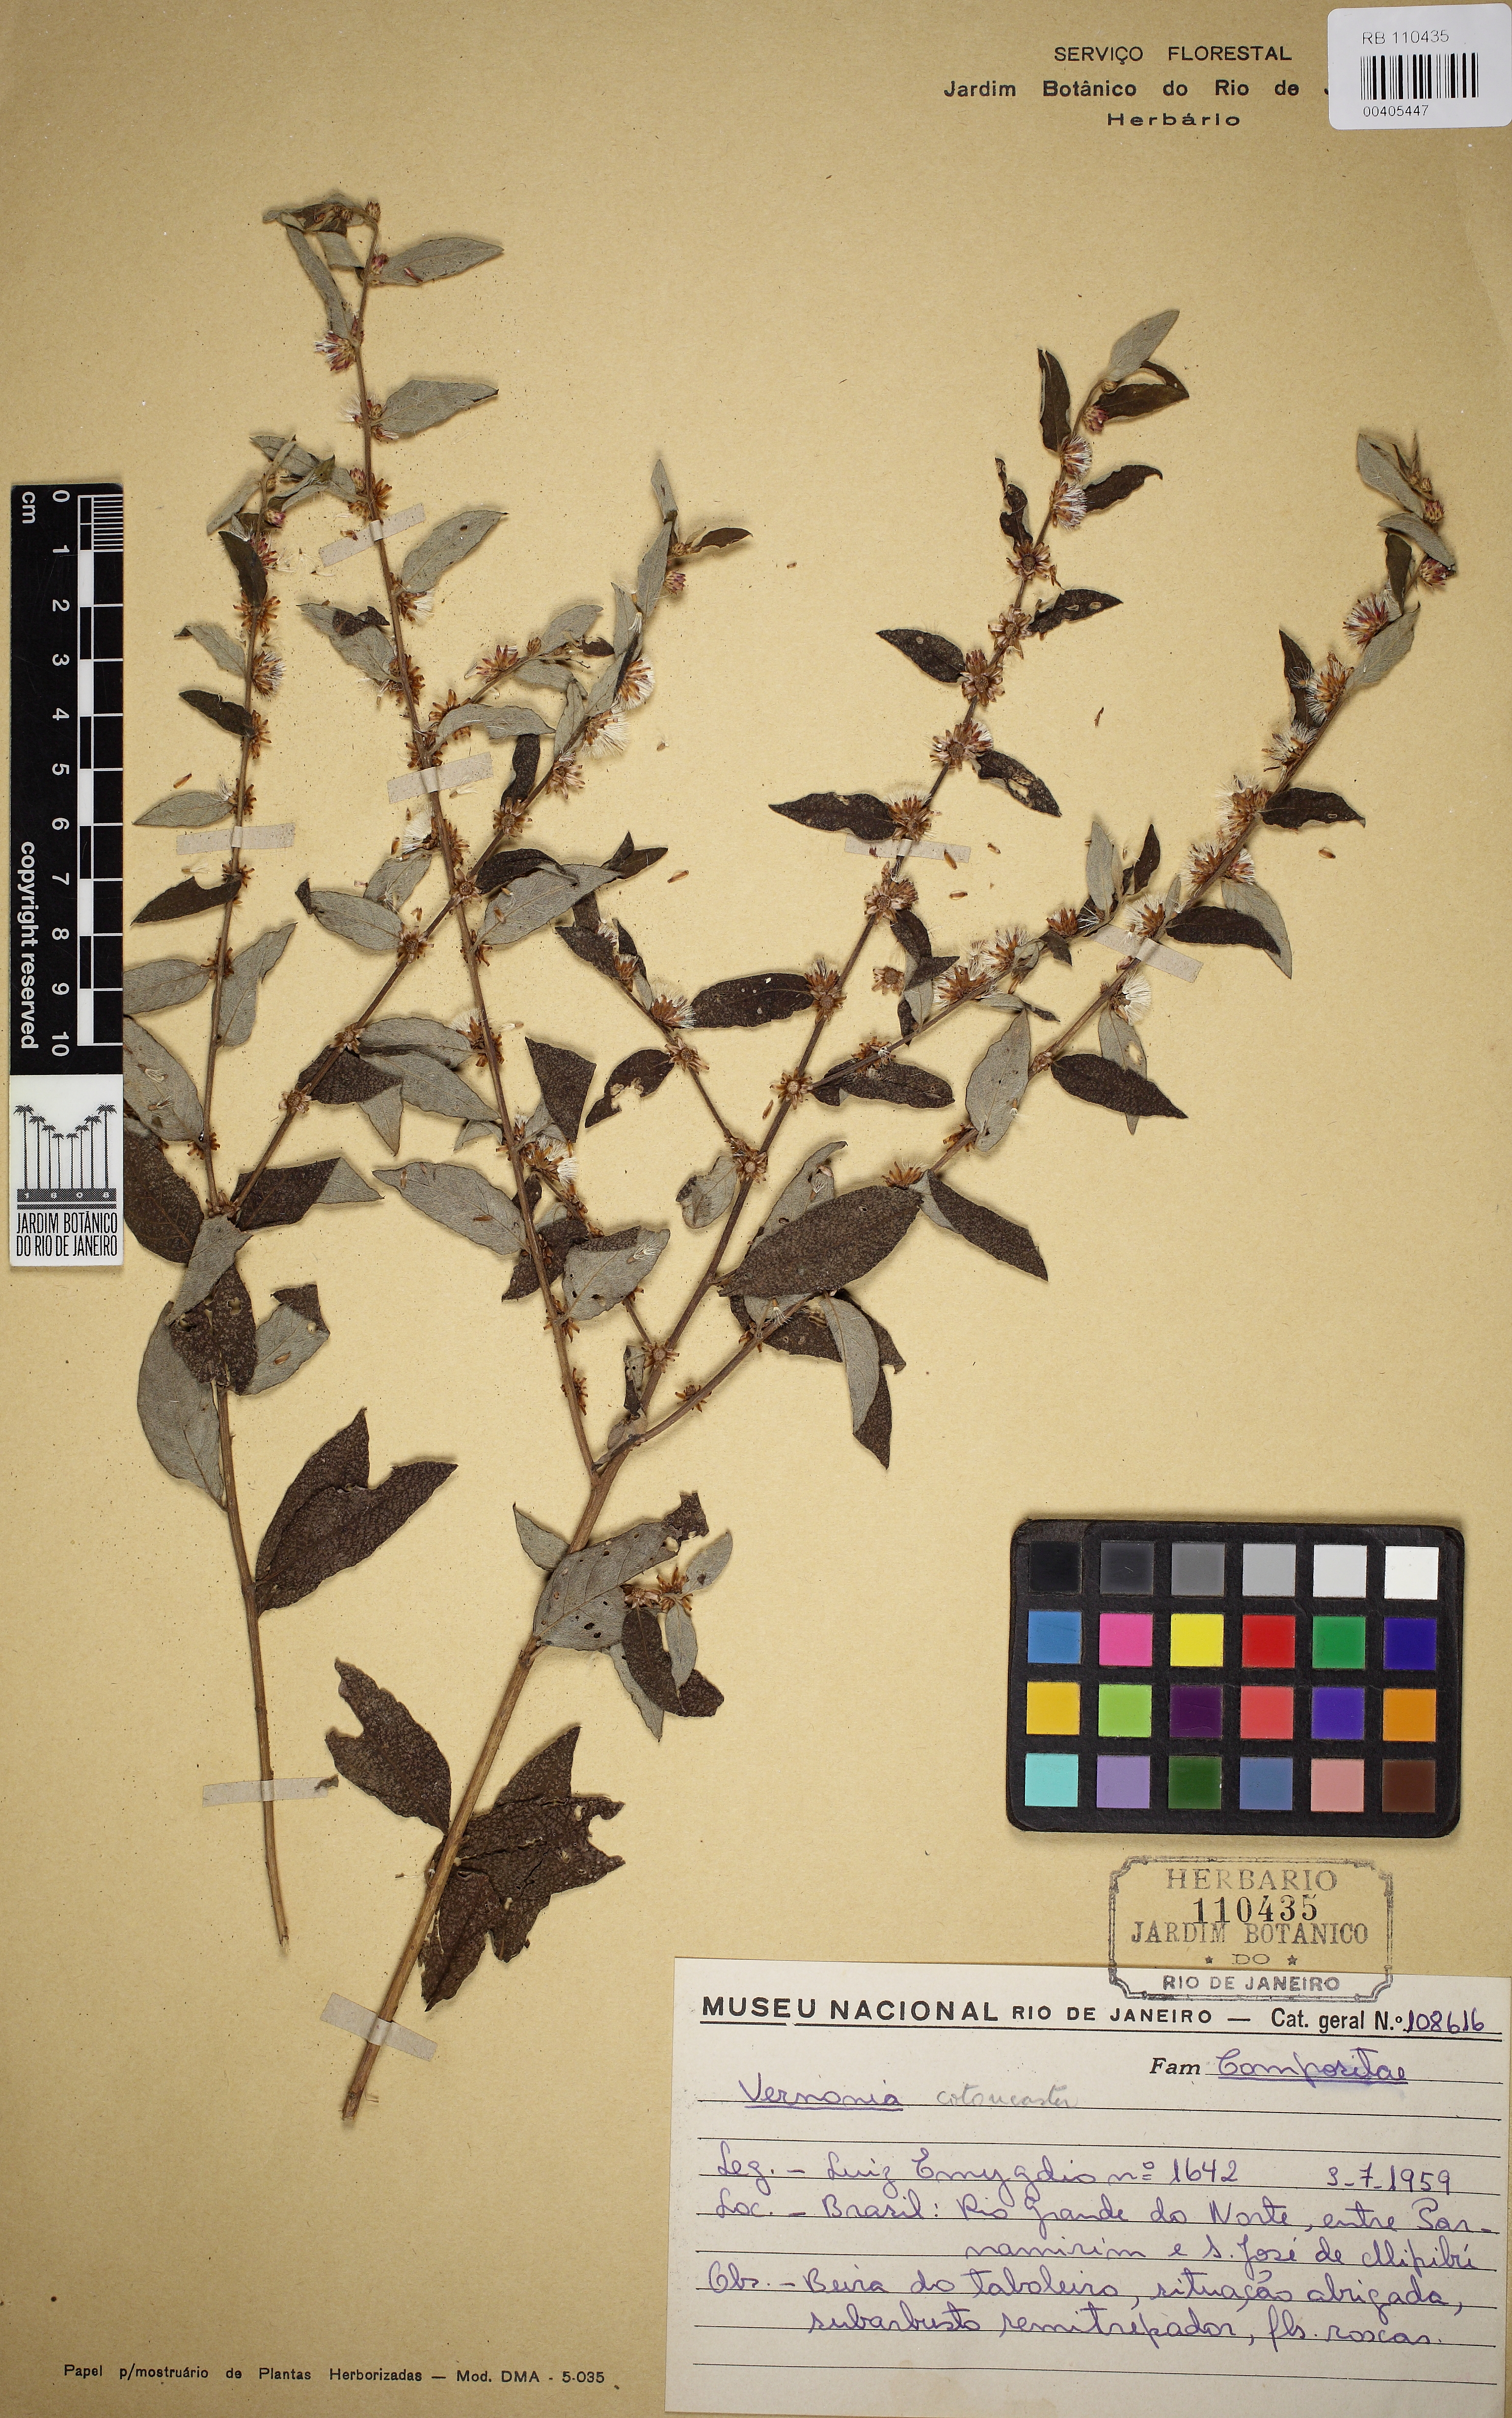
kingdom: Plantae
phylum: Tracheophyta
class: Magnoliopsida
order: Asterales
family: Asteraceae
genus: Lepidaploa
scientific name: Lepidaploa cotoneaster
